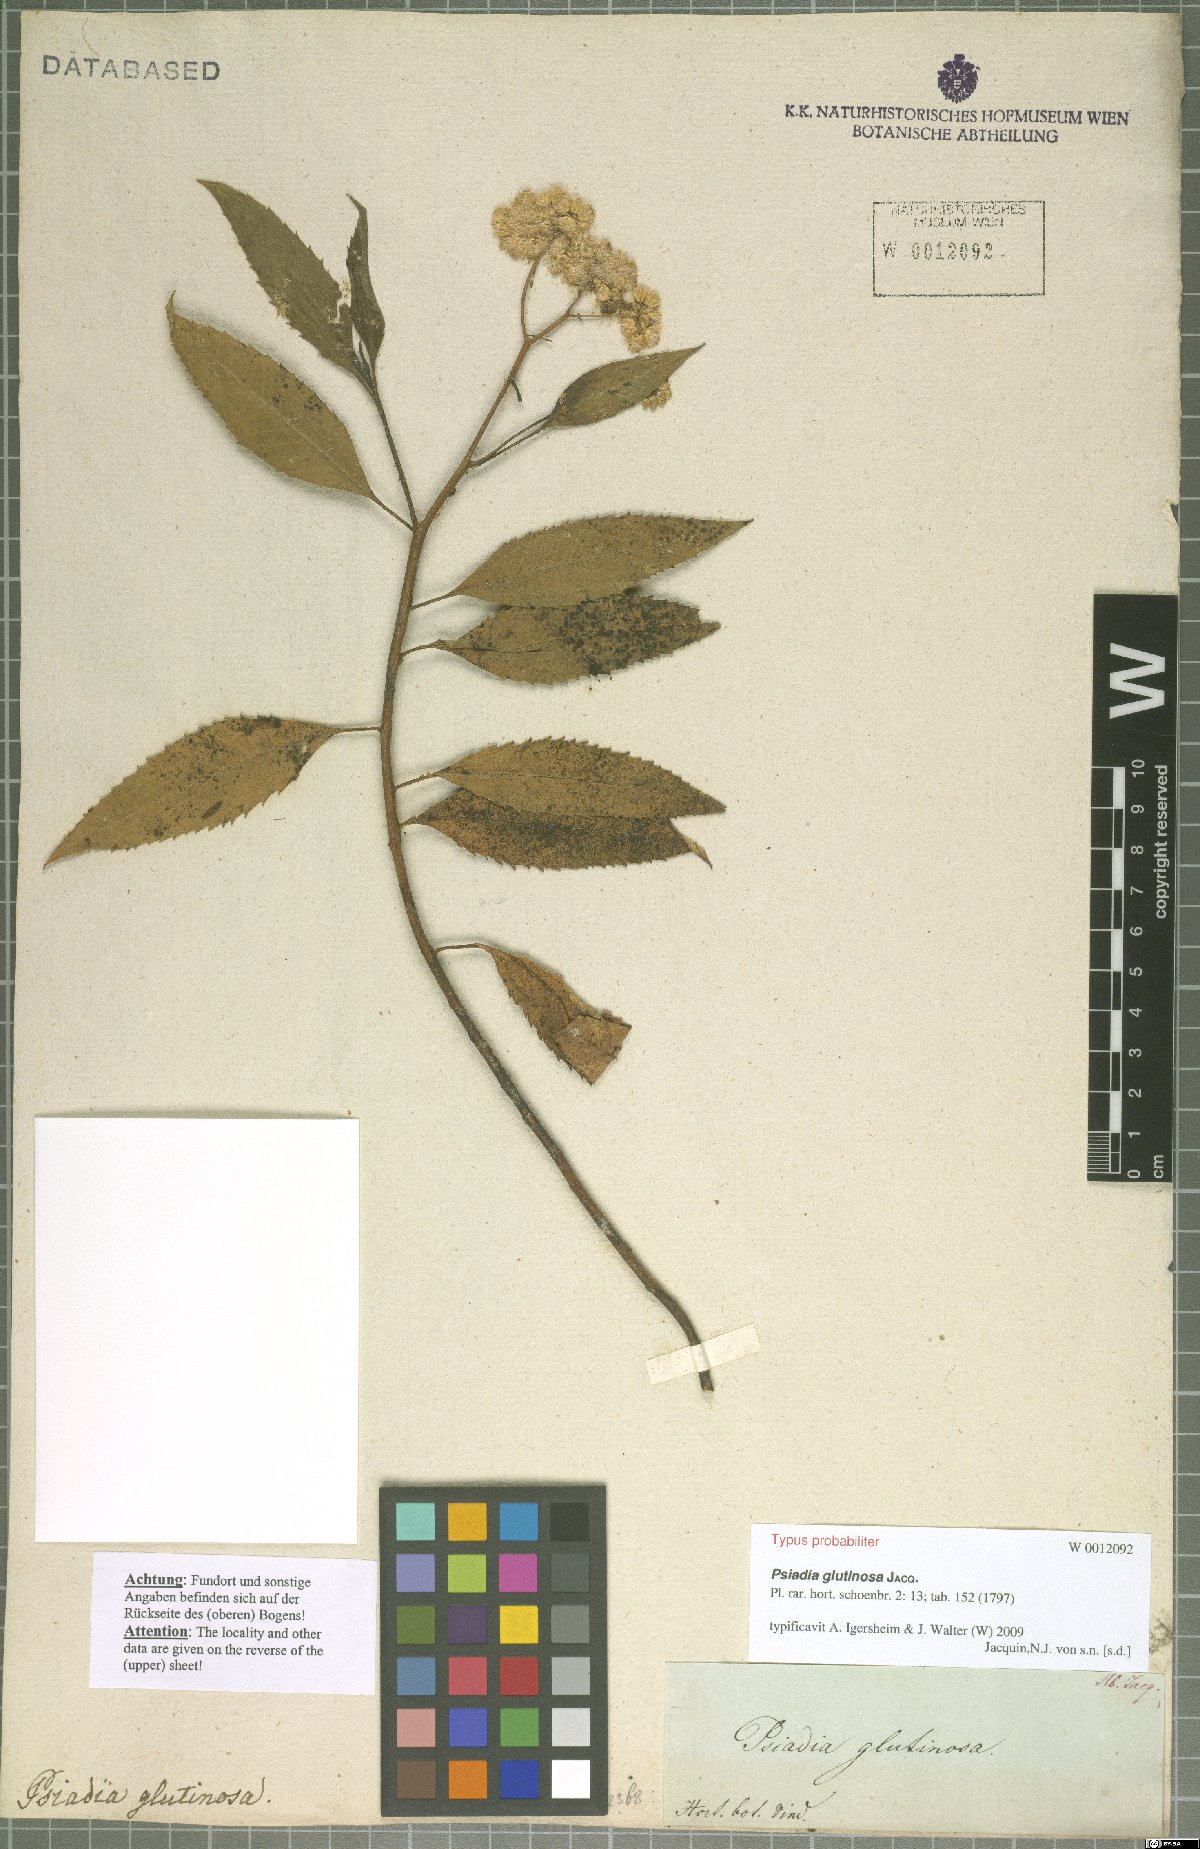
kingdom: Plantae
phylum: Tracheophyta
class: Magnoliopsida
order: Asterales
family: Asteraceae
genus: Psiadia
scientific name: Psiadia glutinosa
